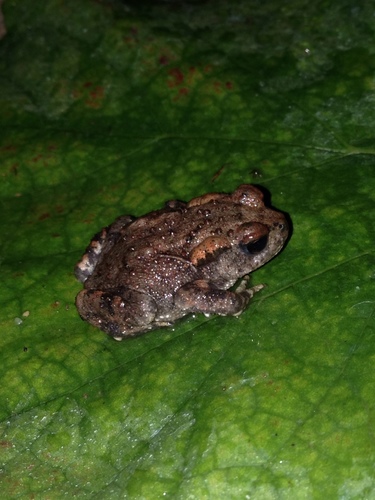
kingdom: Animalia
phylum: Chordata
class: Amphibia
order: Anura
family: Bufonidae
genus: Bufo
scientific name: Bufo spinosus
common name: Western common toad
